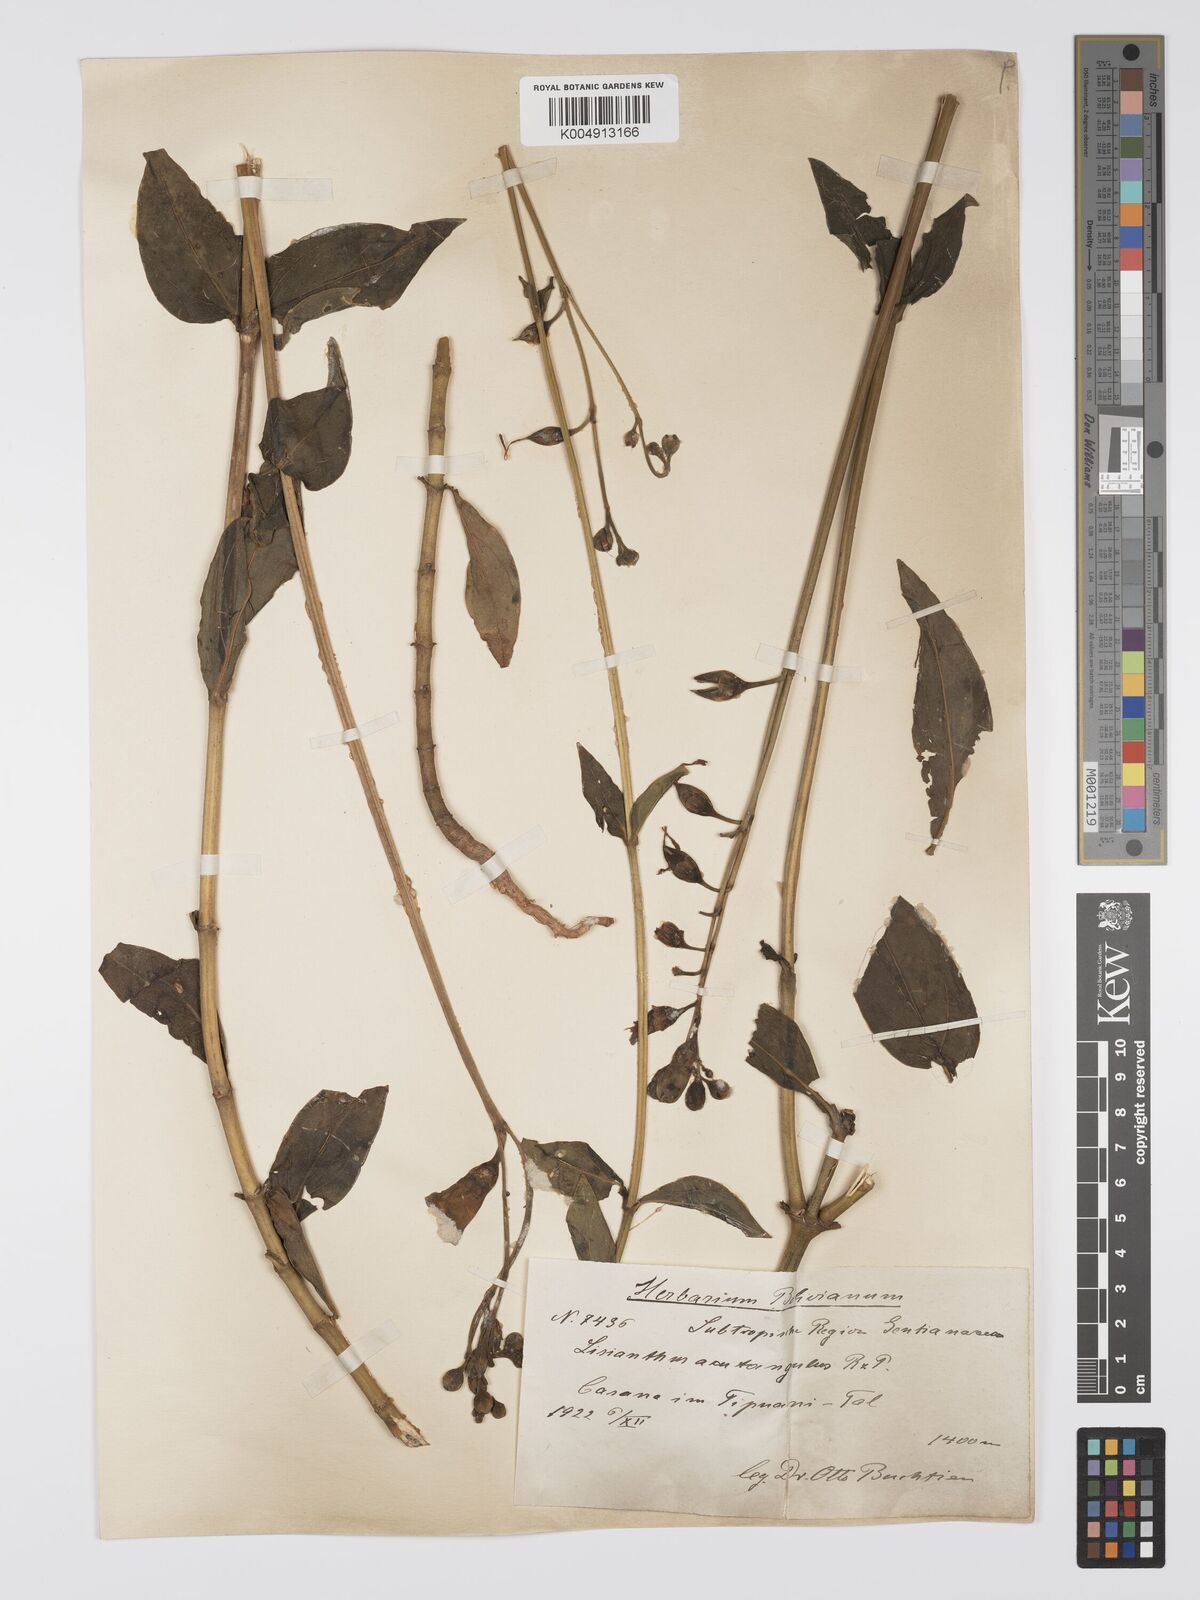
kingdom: Plantae
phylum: Tracheophyta
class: Magnoliopsida
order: Gentianales
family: Gentianaceae
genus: Chelonanthus
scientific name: Chelonanthus alatus
